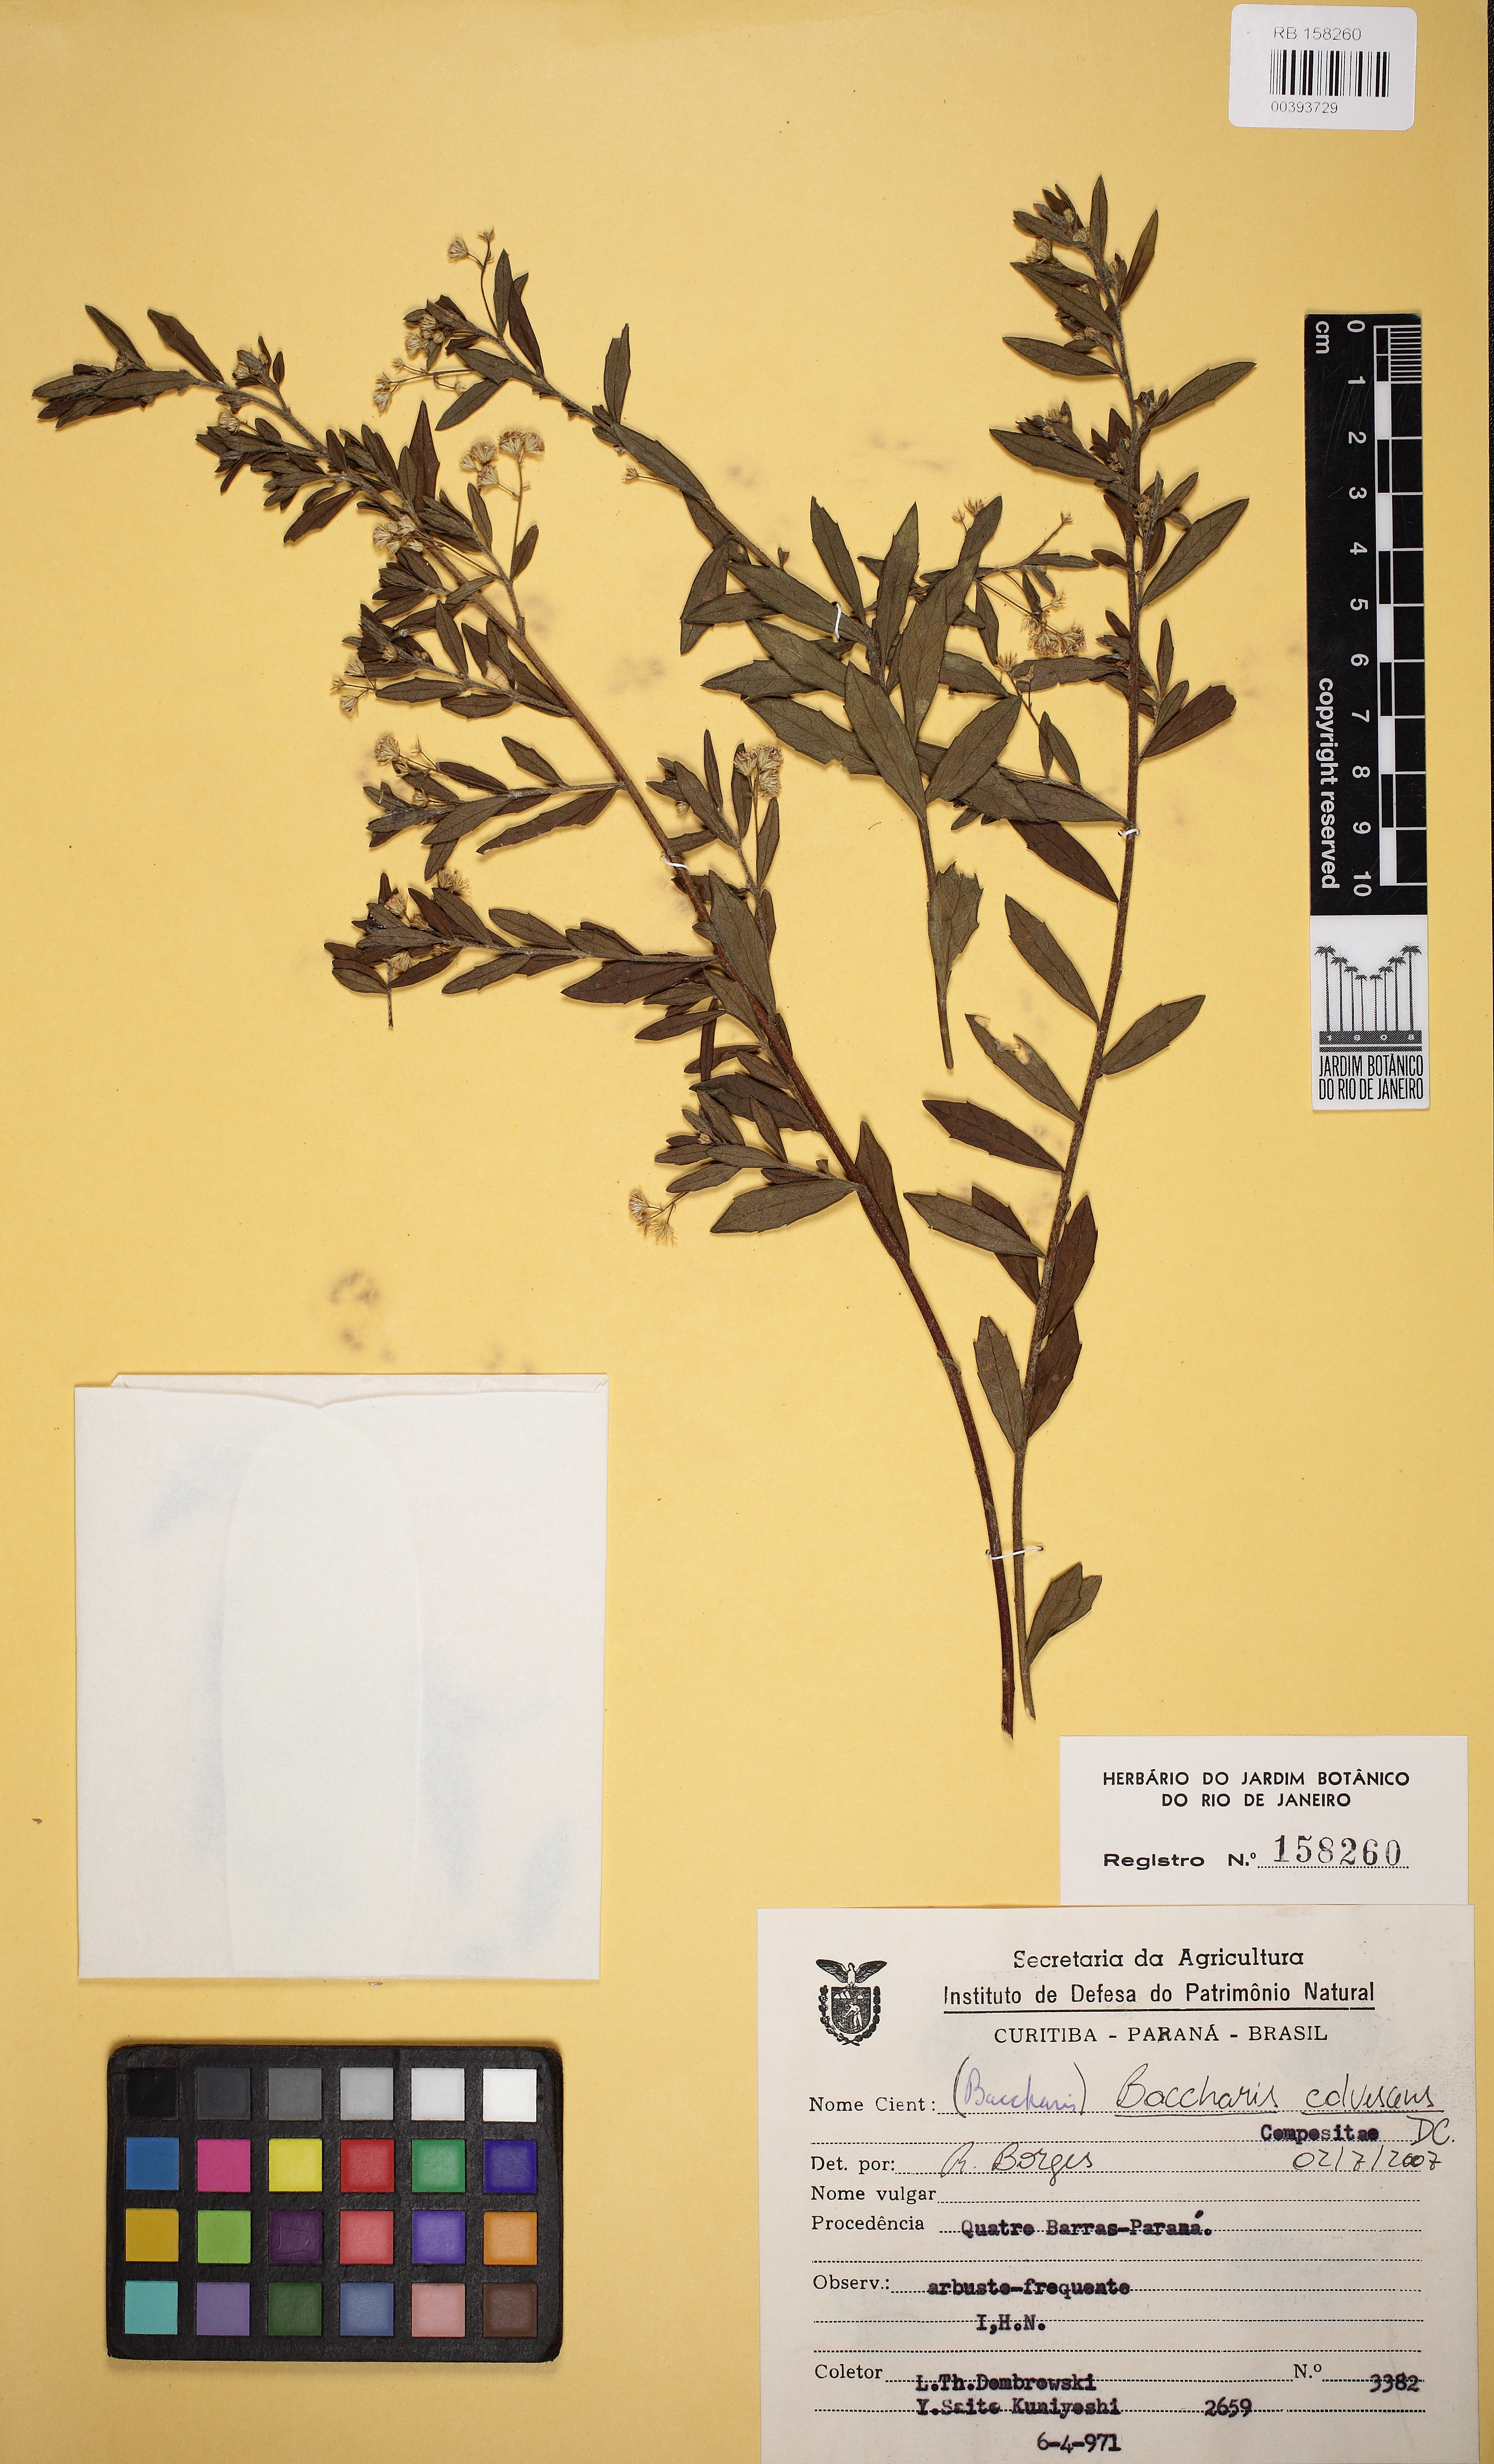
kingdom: Plantae
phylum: Tracheophyta
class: Magnoliopsida
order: Asterales
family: Asteraceae
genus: Baccharis
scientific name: Baccharis calvescens
